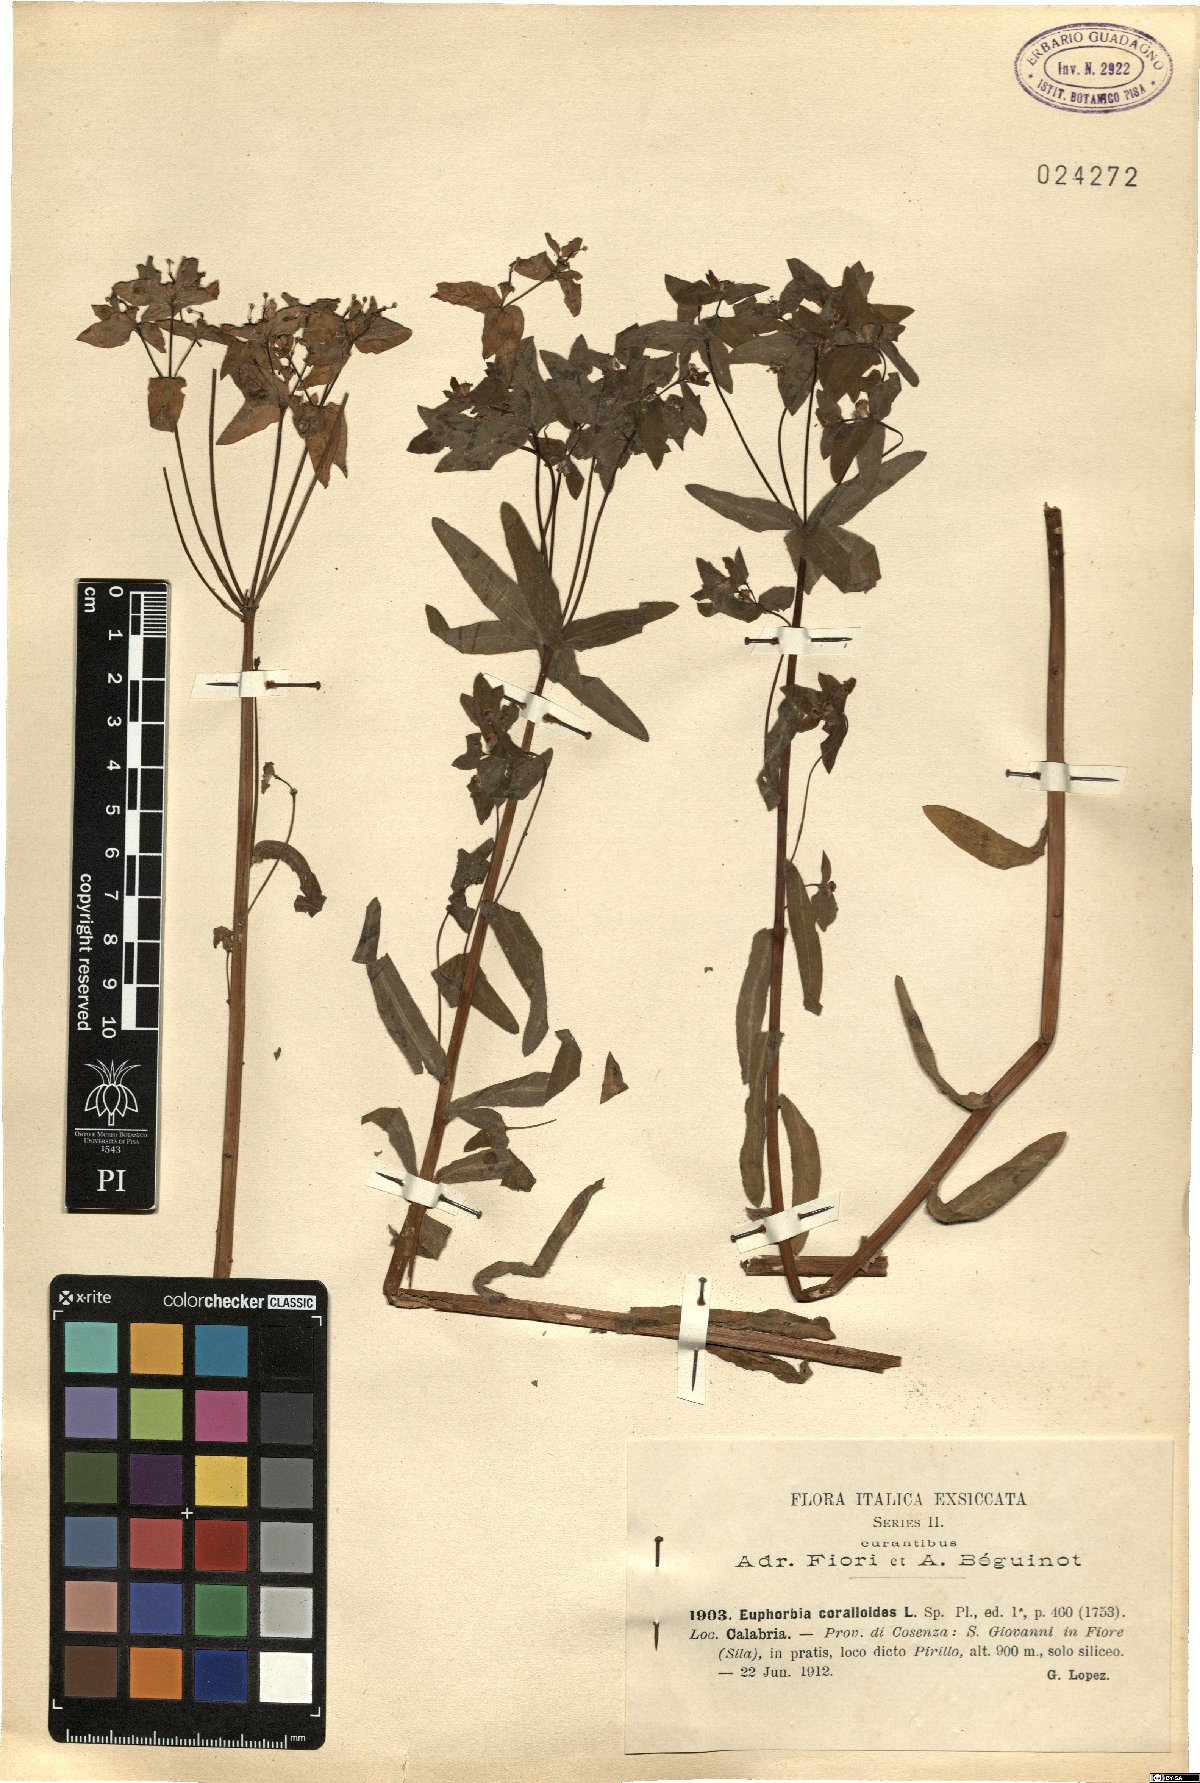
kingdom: Plantae
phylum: Tracheophyta
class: Magnoliopsida
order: Malpighiales
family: Euphorbiaceae
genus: Euphorbia
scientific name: Euphorbia corallioides
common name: Coral spurge
